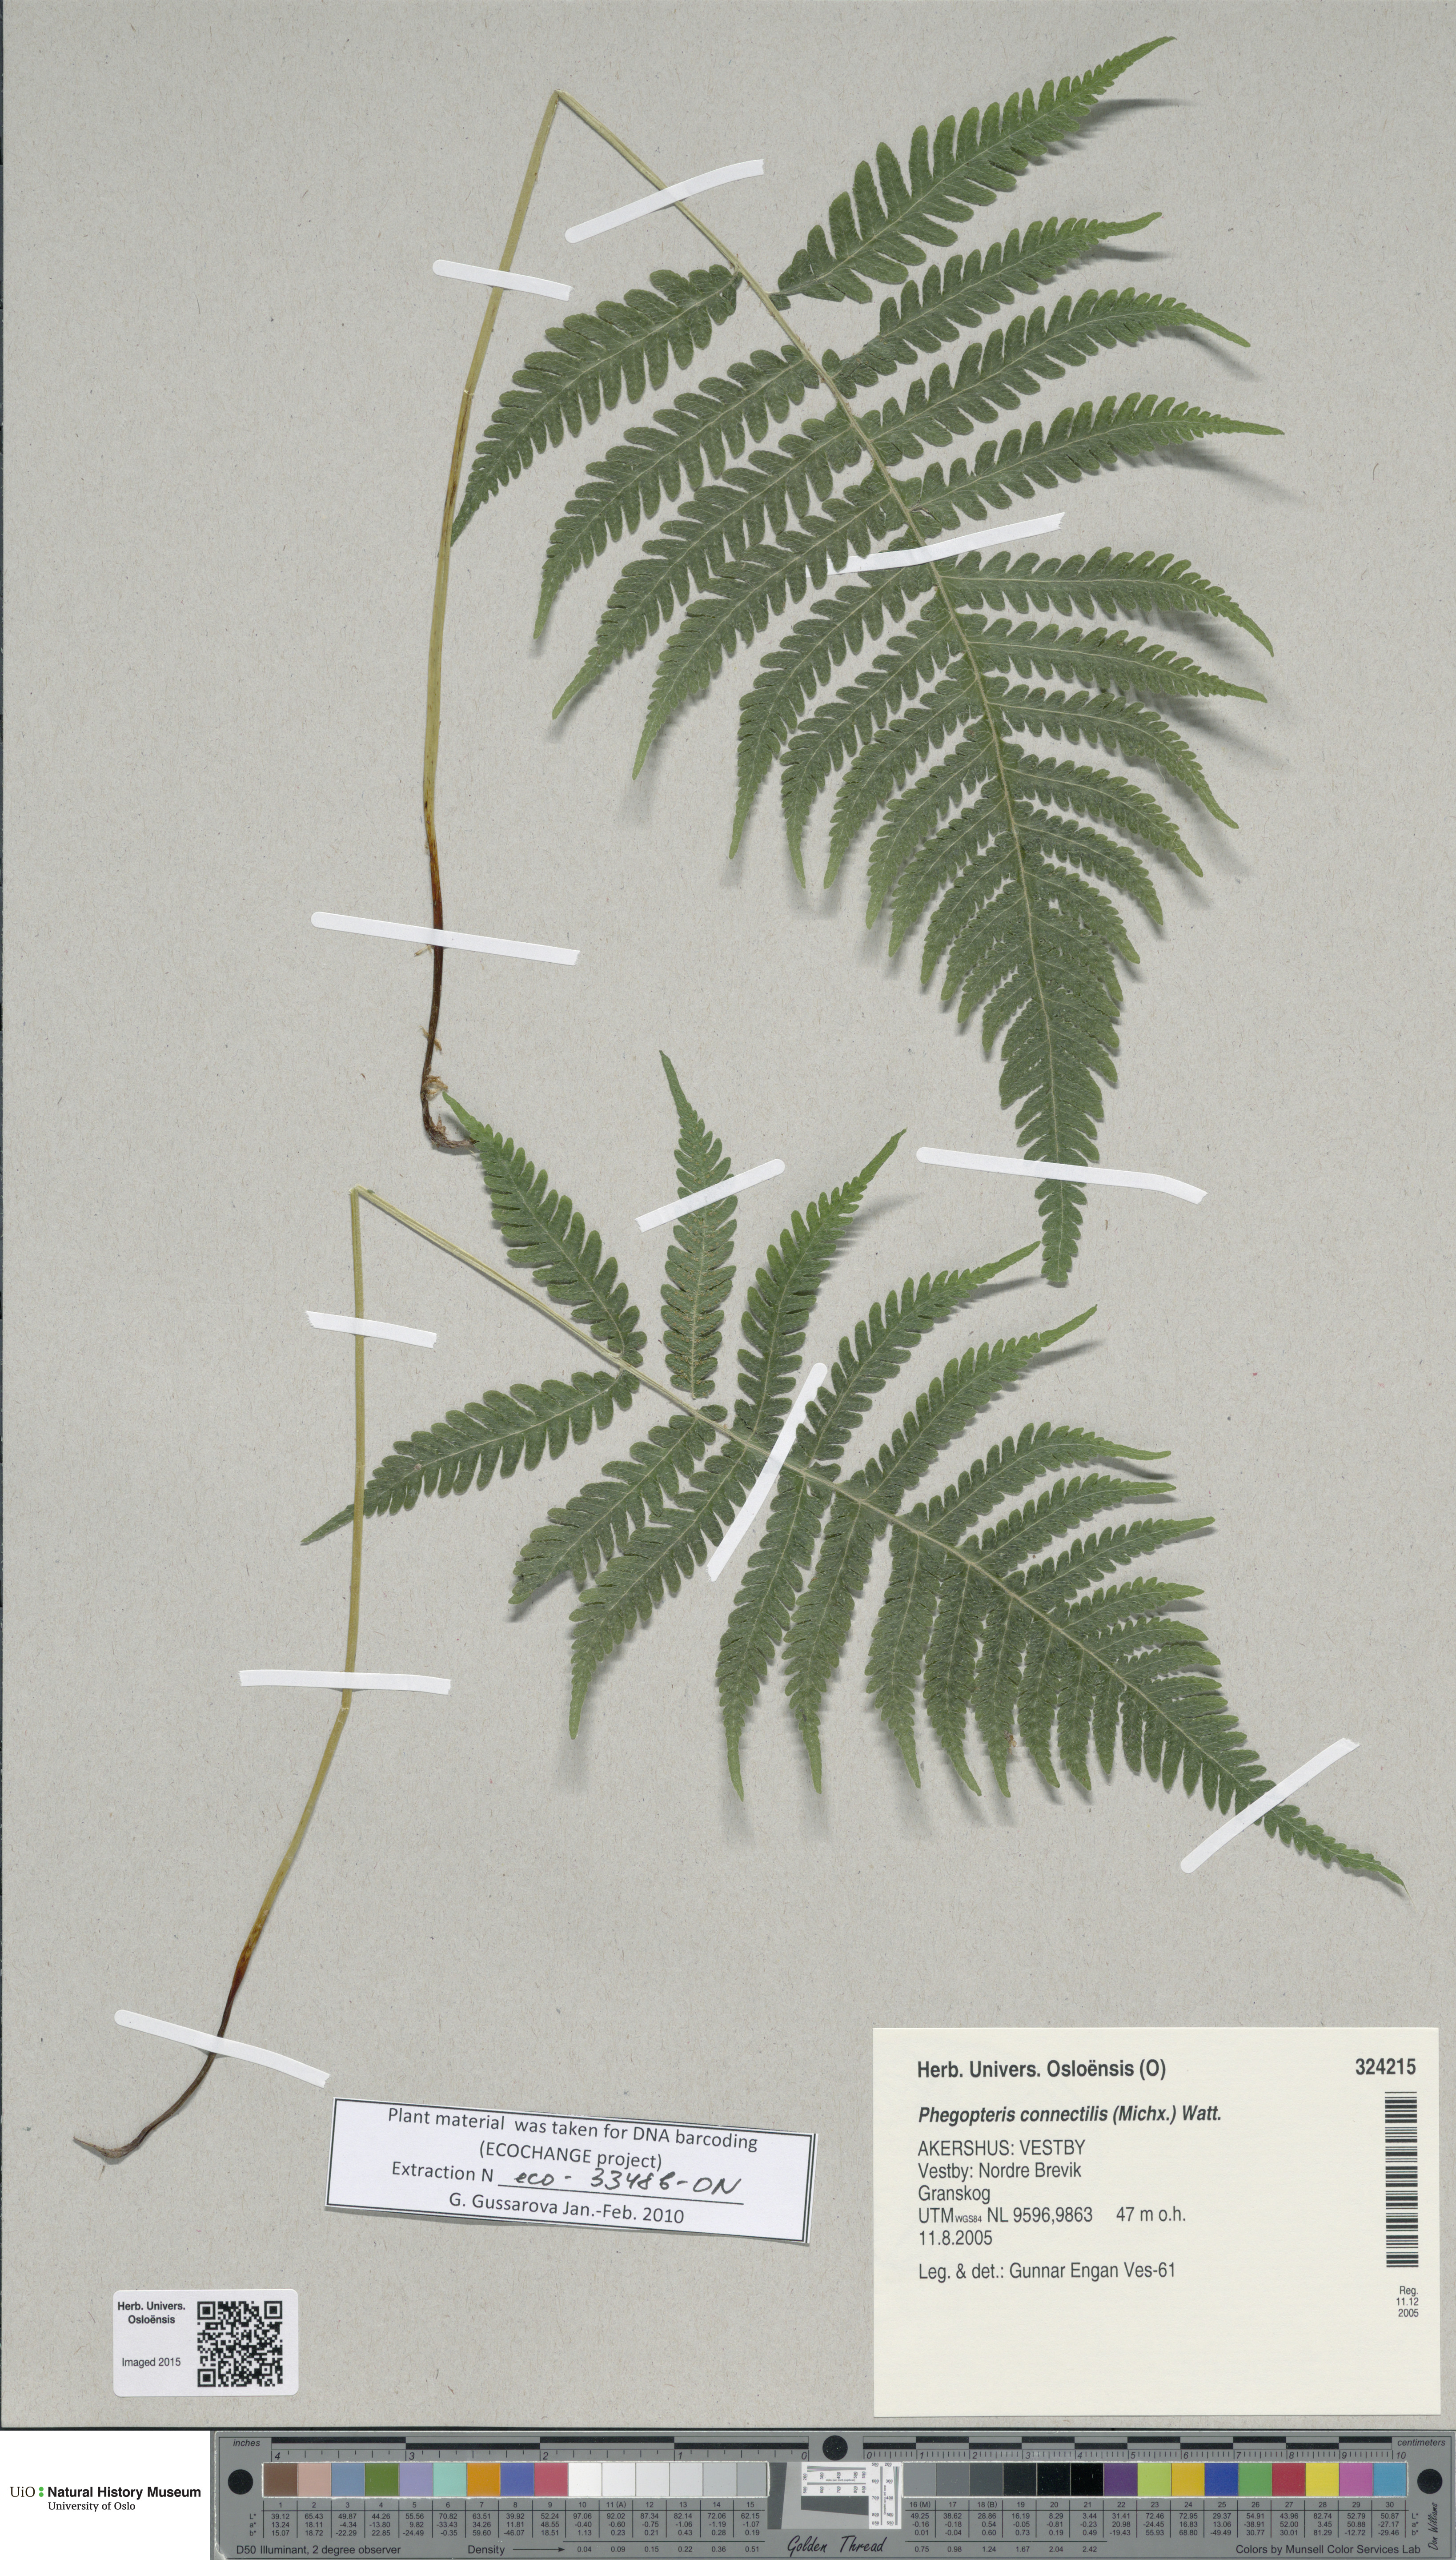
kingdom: Plantae
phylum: Tracheophyta
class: Polypodiopsida
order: Polypodiales
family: Thelypteridaceae
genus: Phegopteris
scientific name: Phegopteris connectilis
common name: Beech fern
